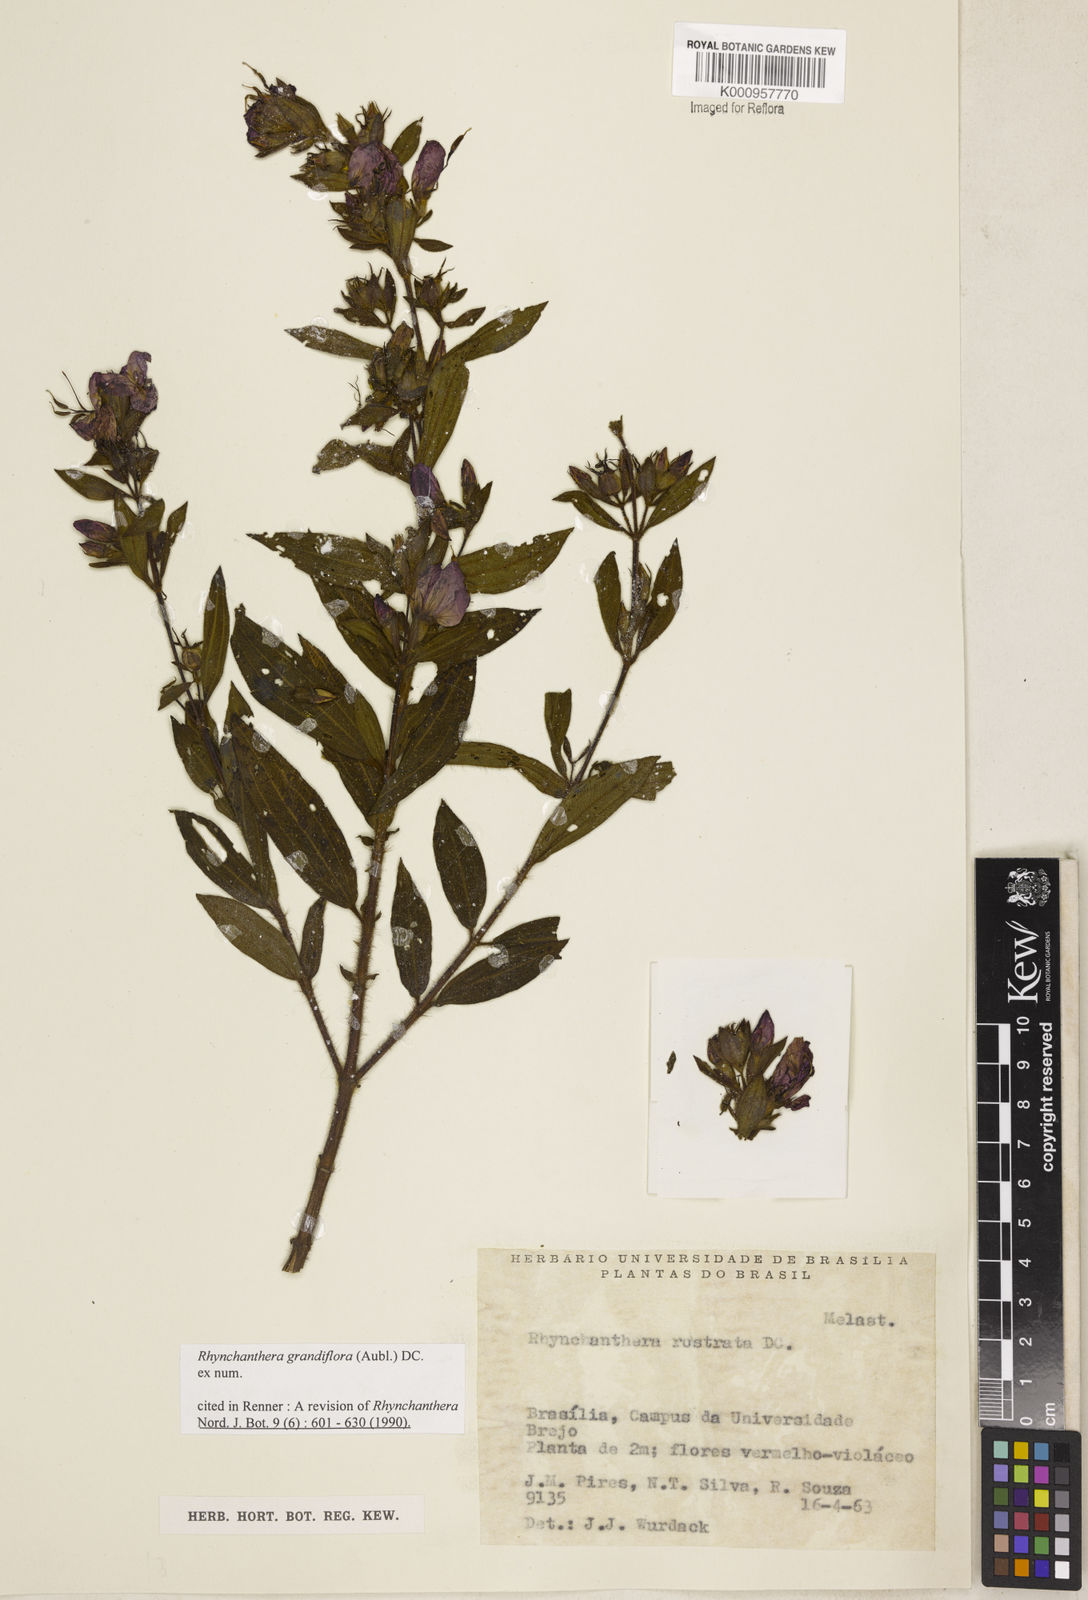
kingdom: Plantae
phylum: Tracheophyta
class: Magnoliopsida
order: Myrtales
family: Melastomataceae
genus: Rhynchanthera
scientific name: Rhynchanthera grandiflora
